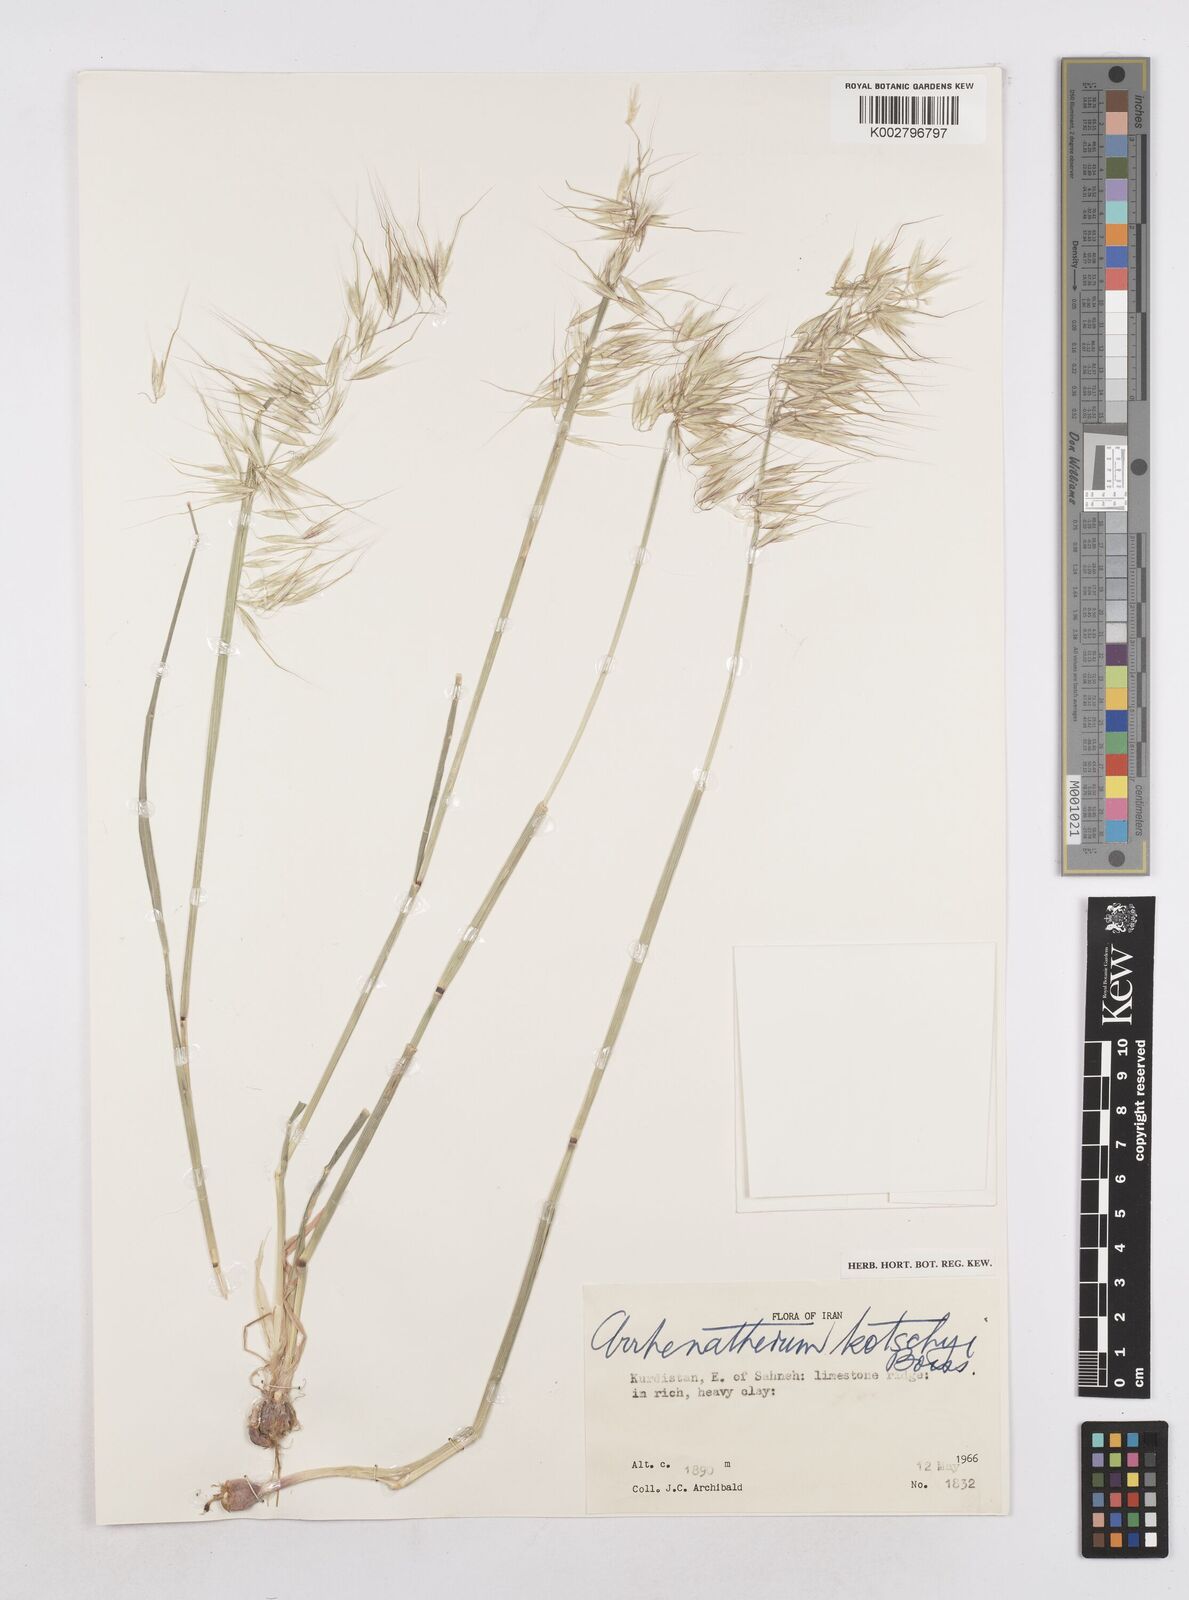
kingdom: Plantae
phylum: Tracheophyta
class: Liliopsida
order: Poales
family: Poaceae
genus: Arrhenatherum
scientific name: Arrhenatherum kotschyi
